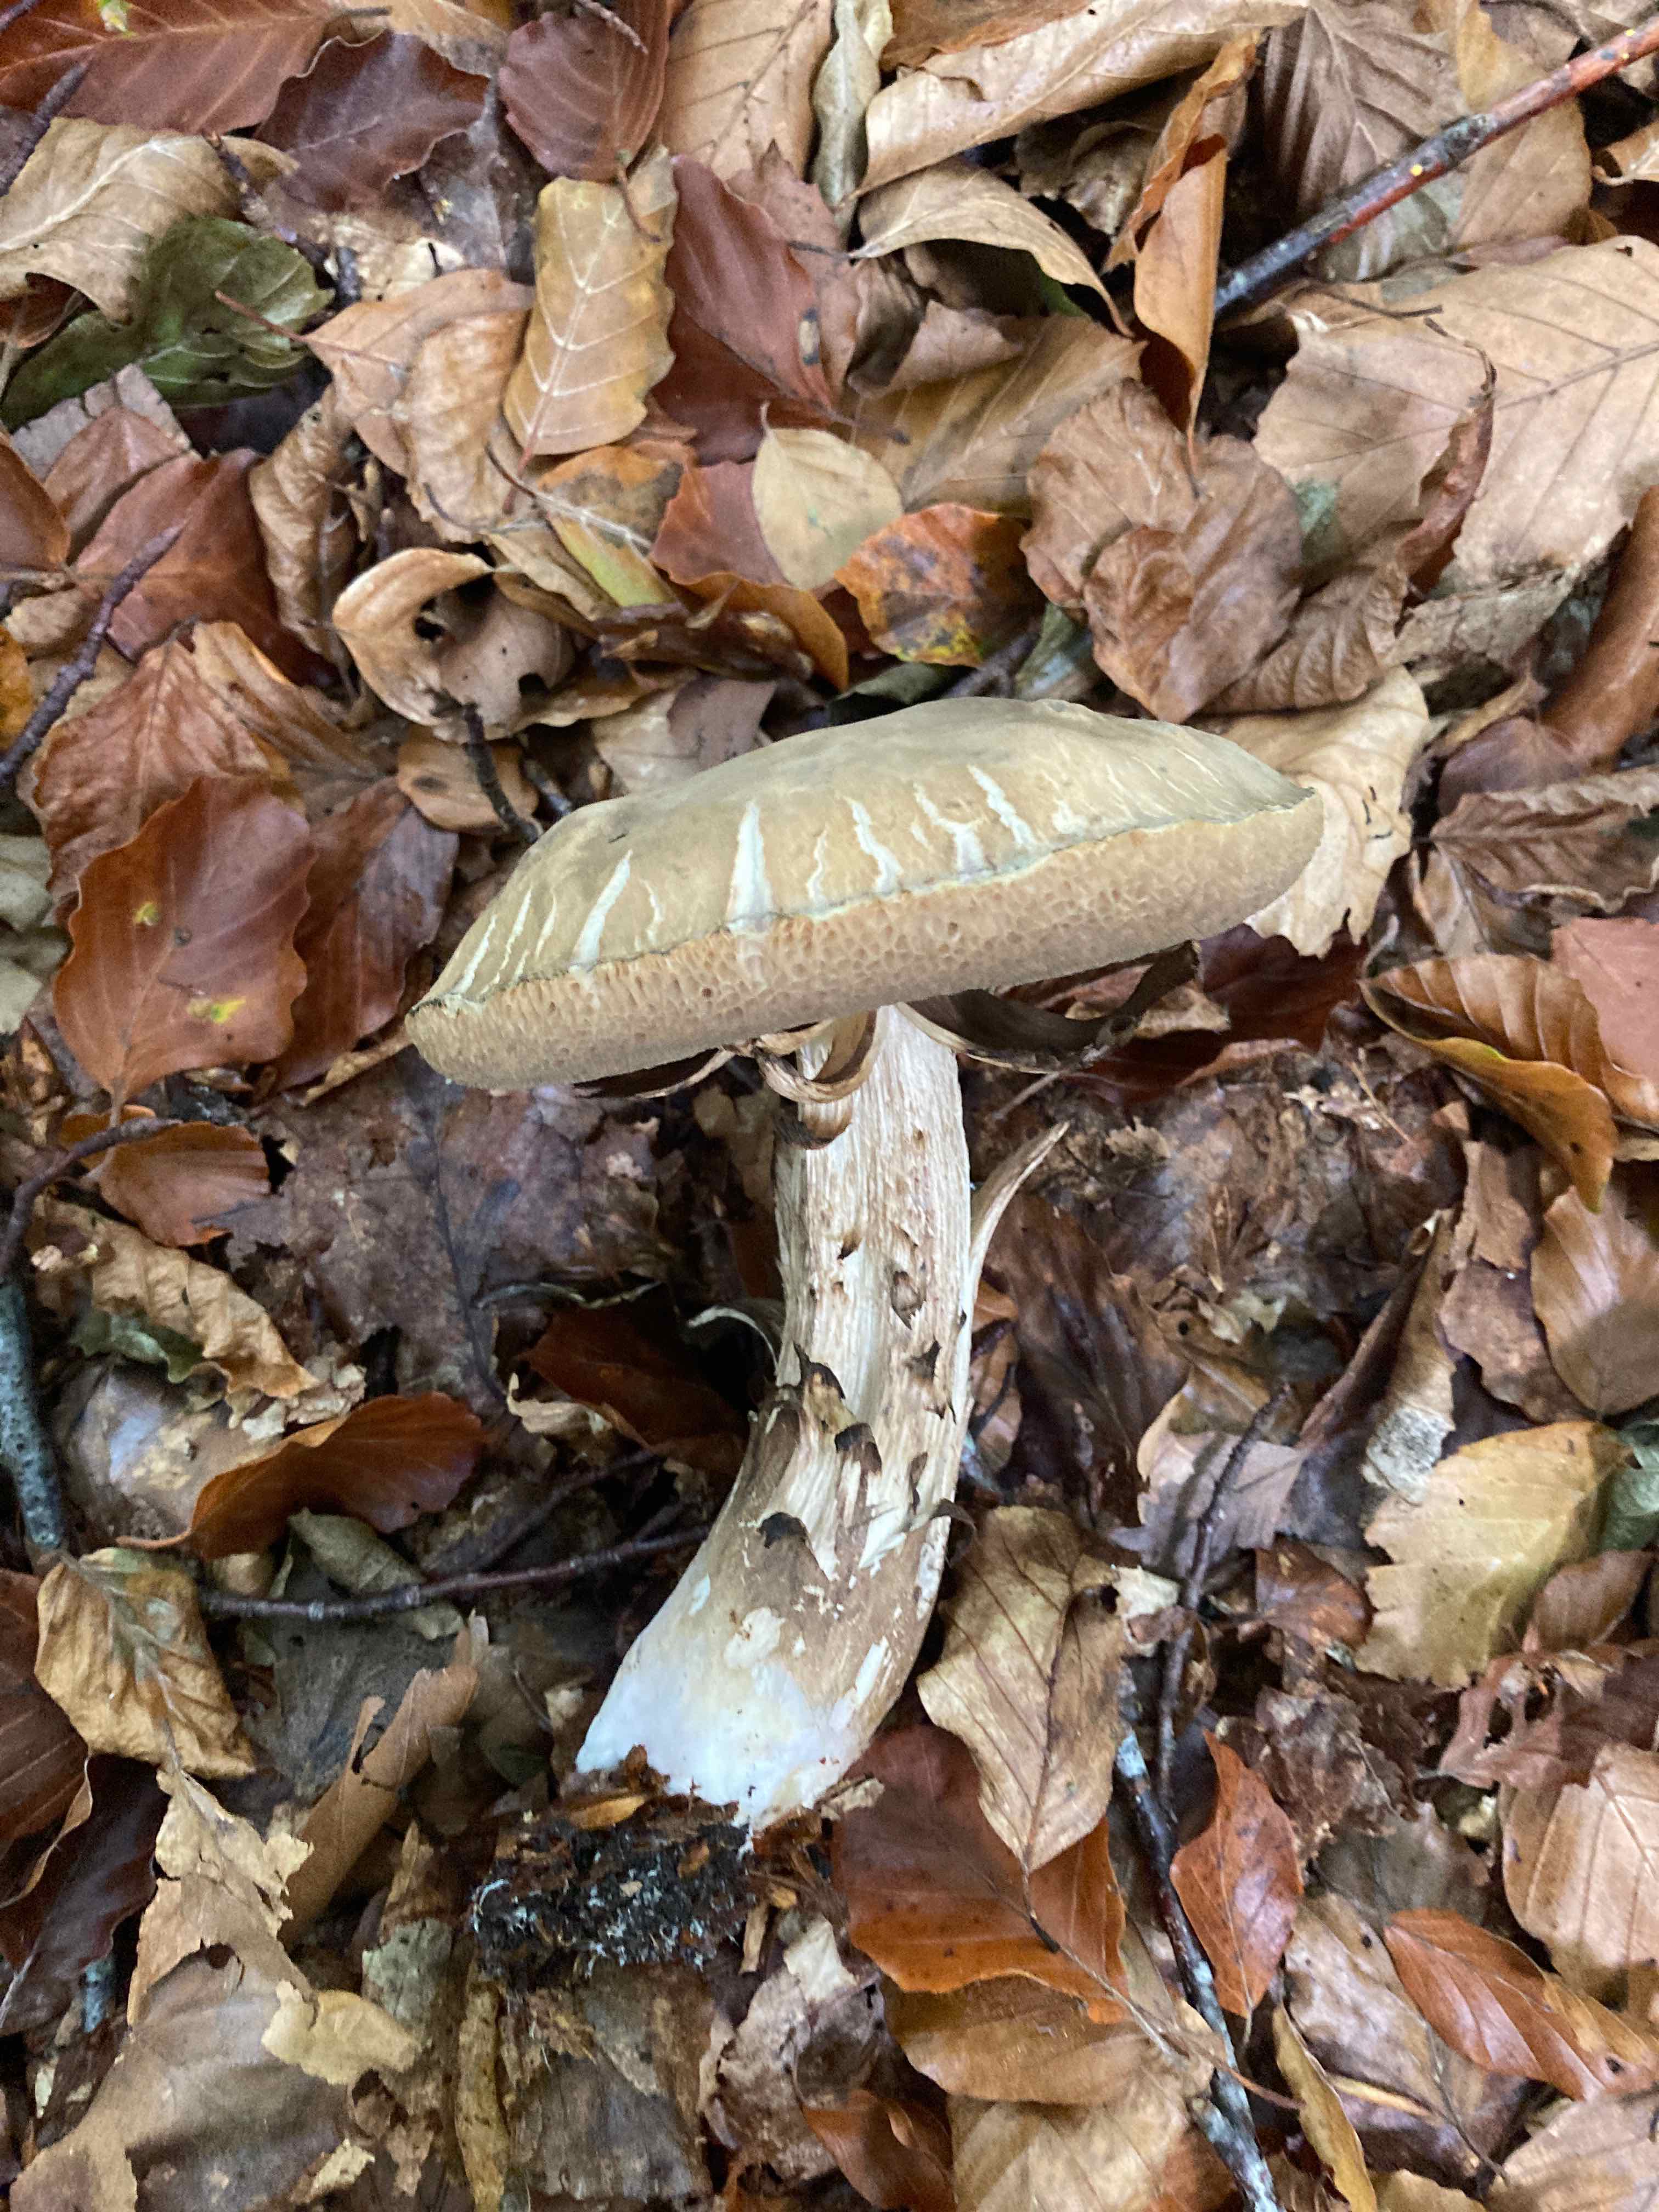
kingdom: Fungi
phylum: Basidiomycota
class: Agaricomycetes
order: Boletales
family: Boletaceae
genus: Porphyrellus
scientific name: Porphyrellus porphyrosporus
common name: sodrørhat
